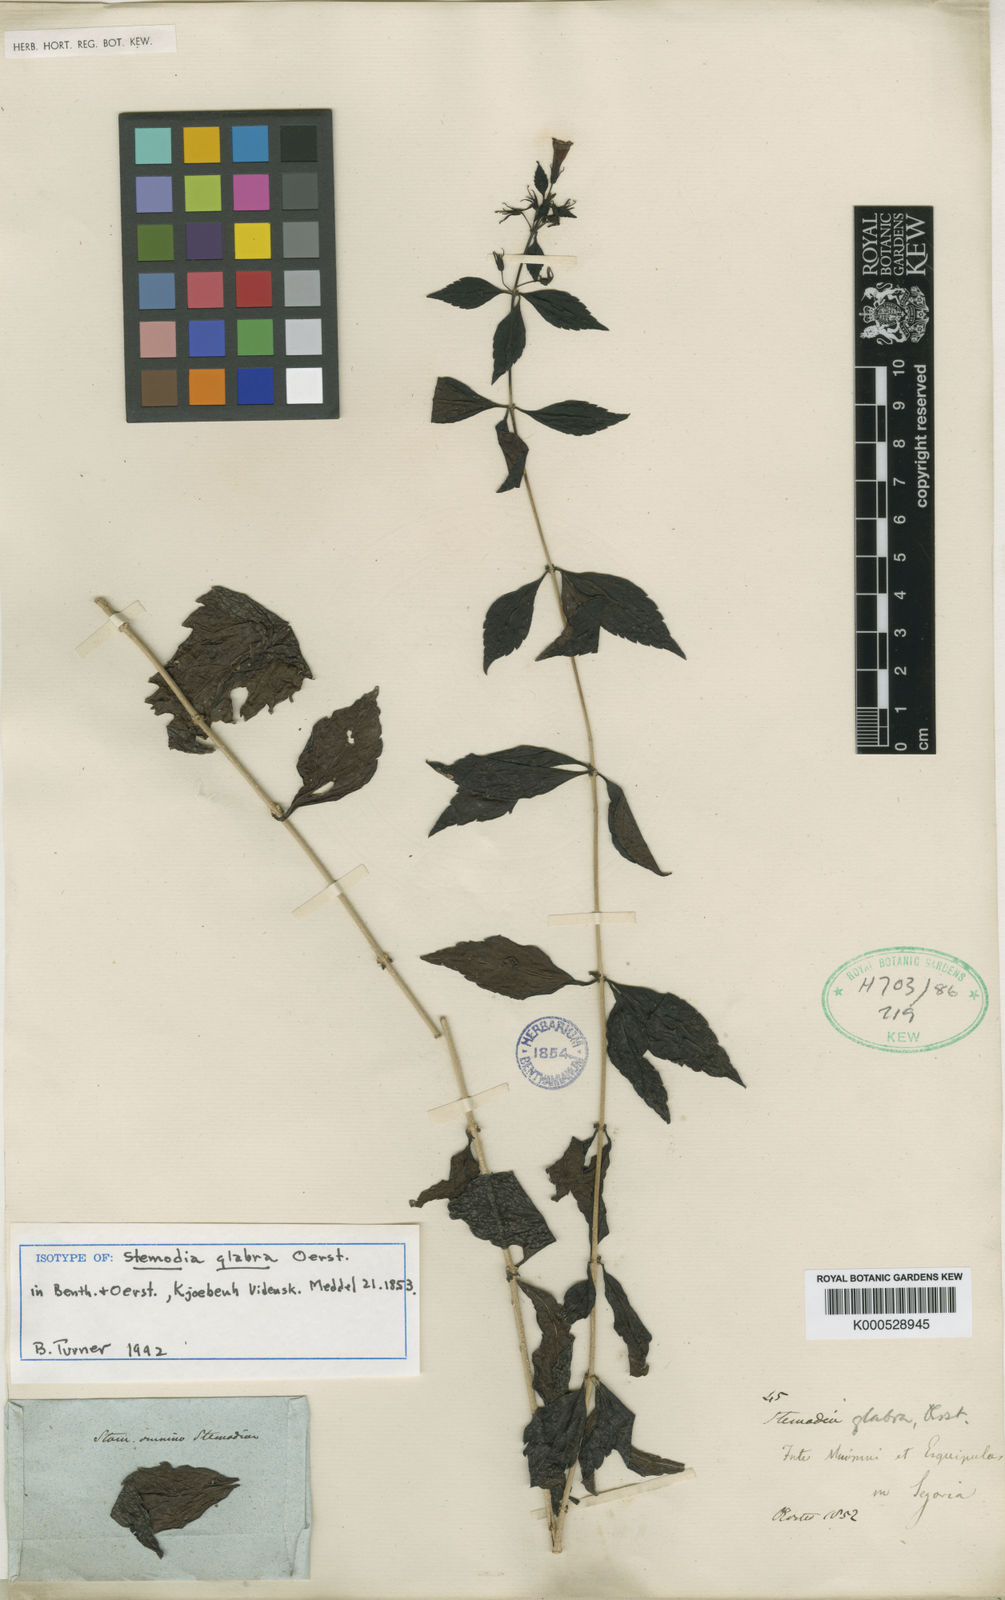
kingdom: Plantae
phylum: Tracheophyta
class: Magnoliopsida
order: Lamiales
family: Plantaginaceae
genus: Stemodia
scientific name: Stemodia fruticosa
